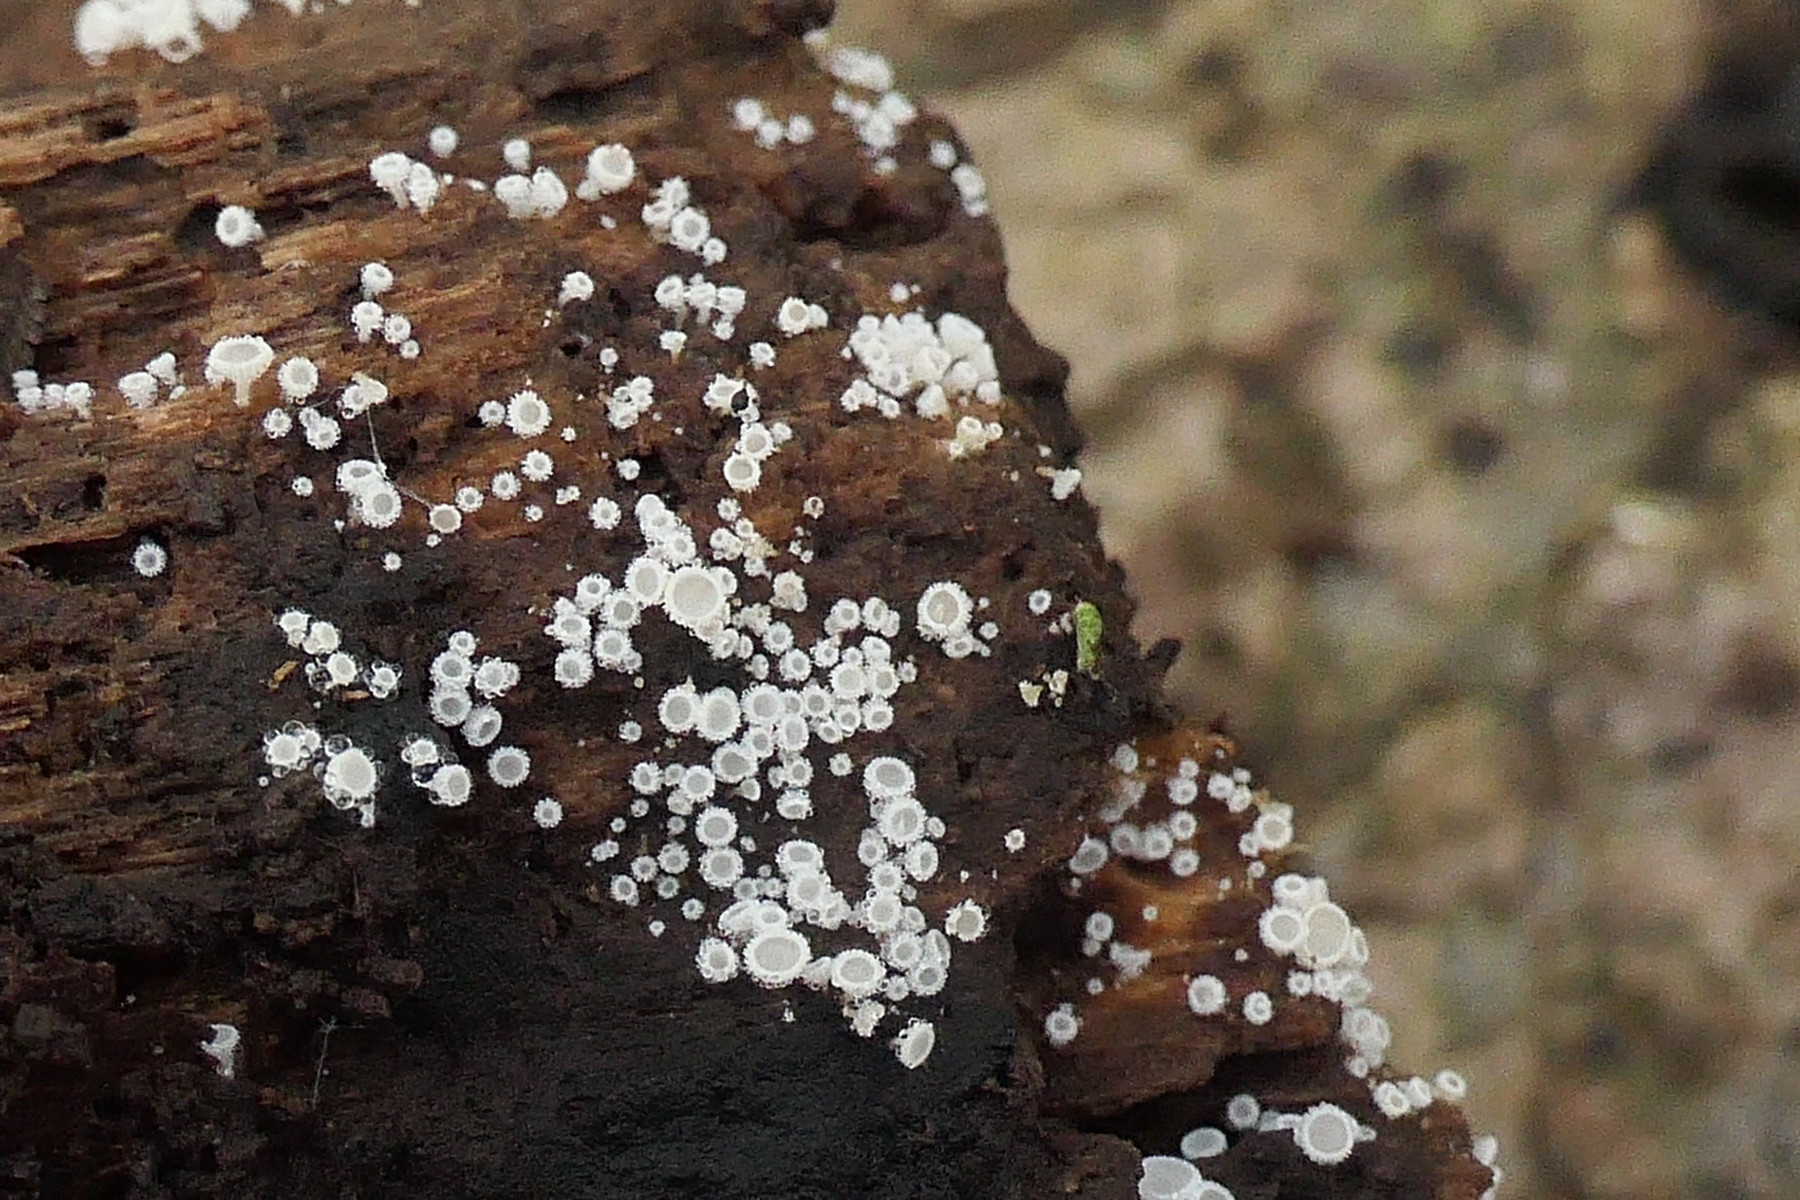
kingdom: Fungi
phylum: Ascomycota
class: Leotiomycetes
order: Helotiales
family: Lachnaceae
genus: Lachnum
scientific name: Lachnum impudicum
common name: vinter-frynseskive
